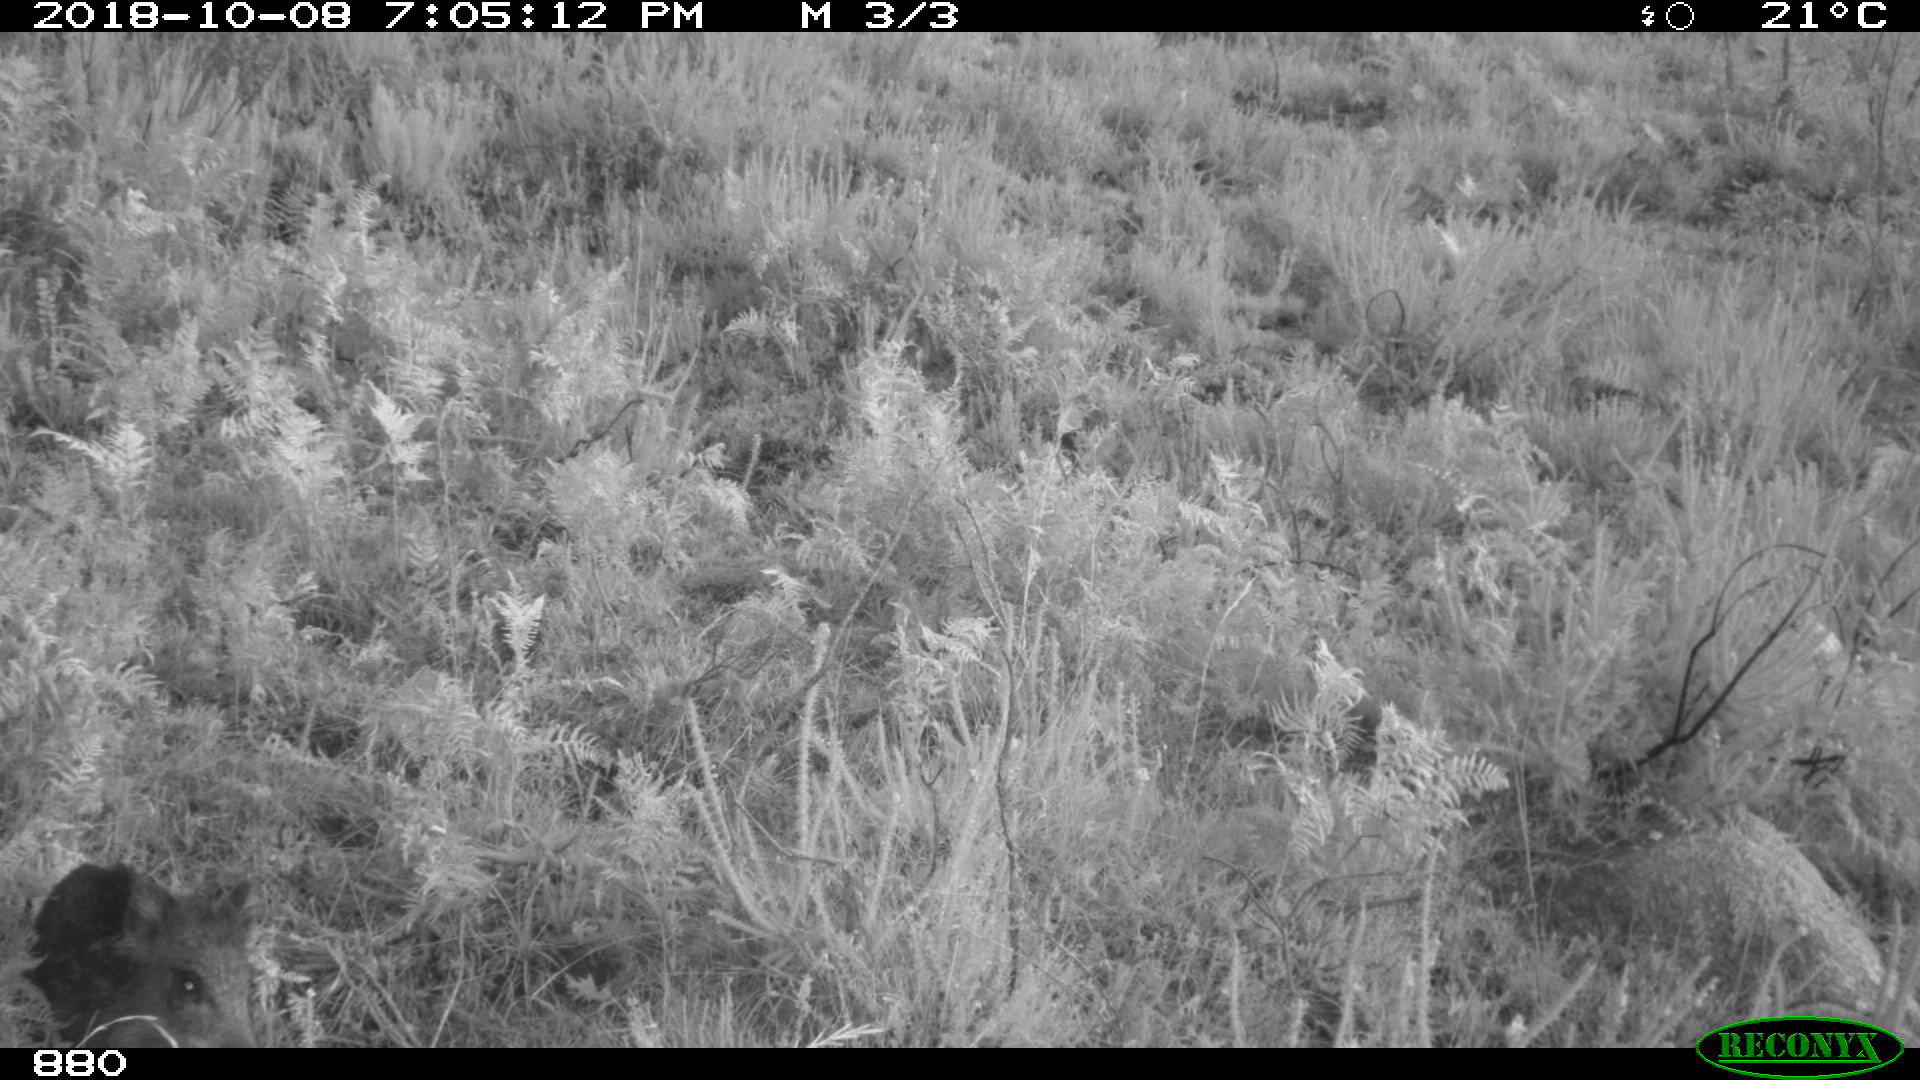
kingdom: Animalia
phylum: Chordata
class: Mammalia
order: Artiodactyla
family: Suidae
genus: Sus
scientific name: Sus scrofa
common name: Wild boar
